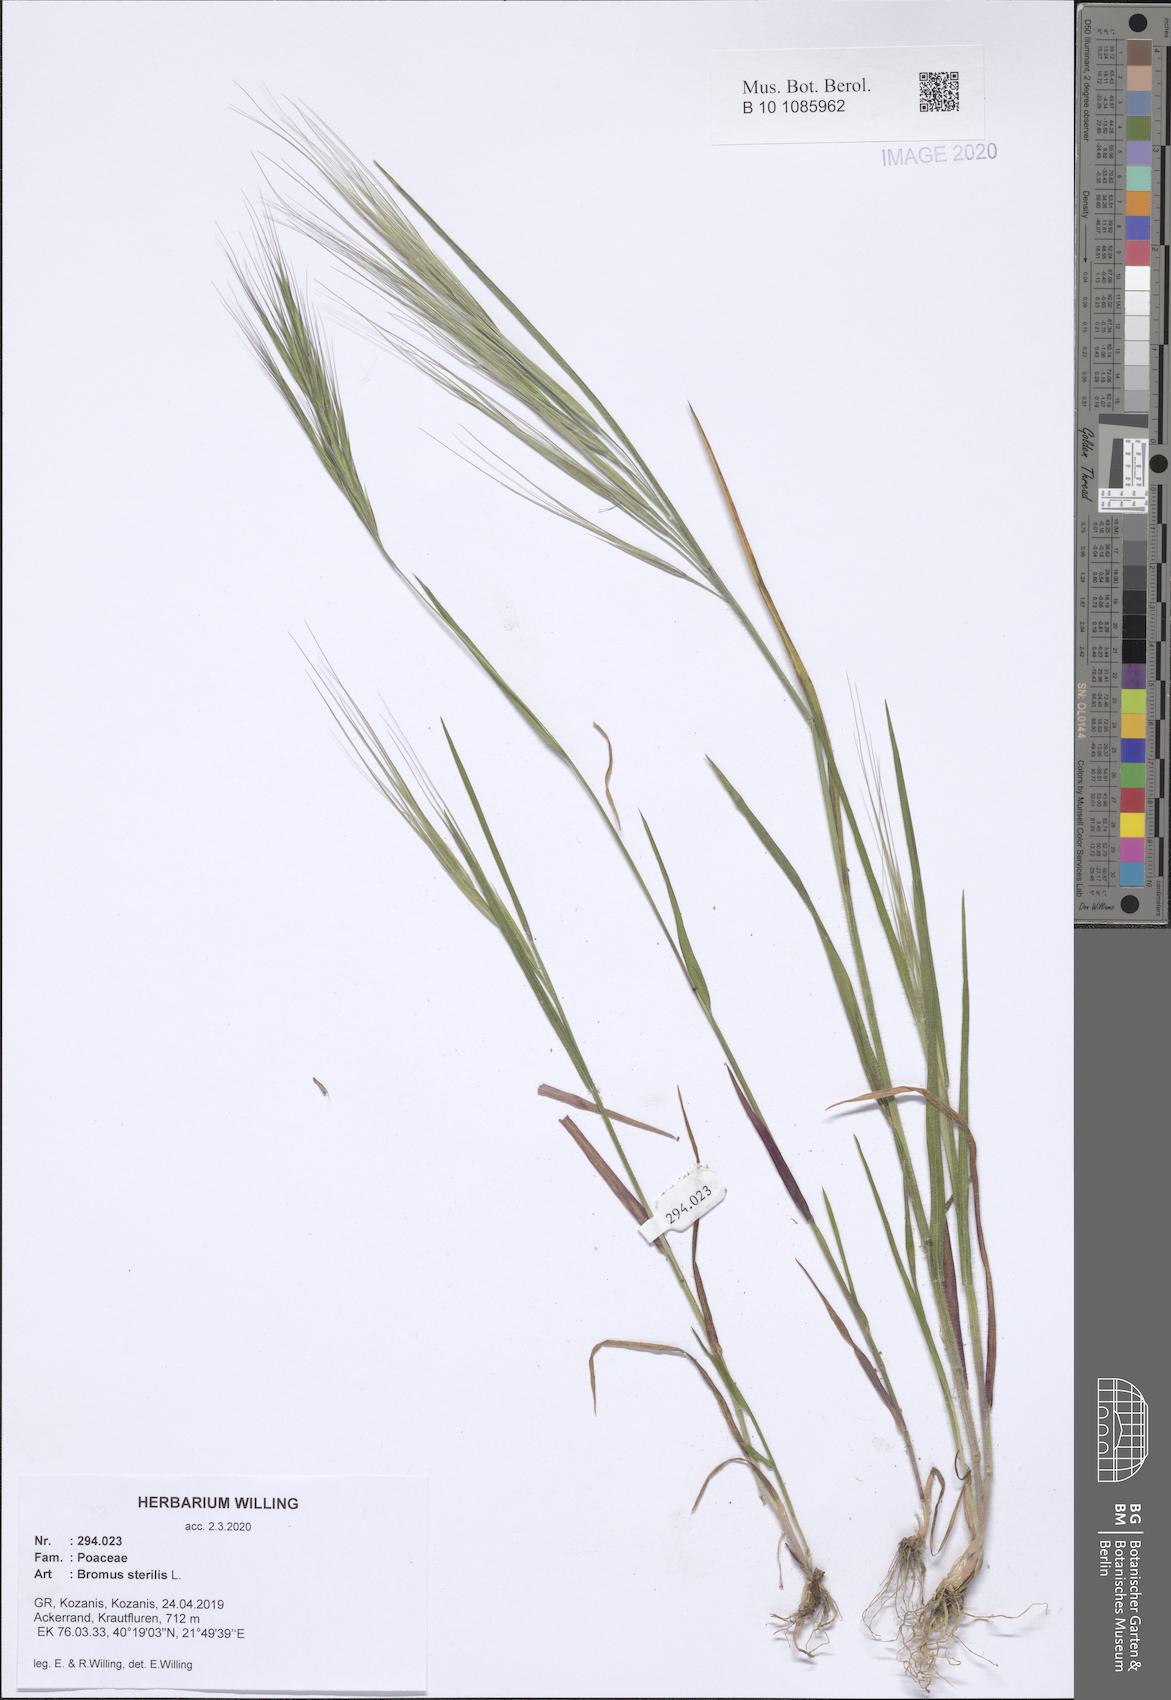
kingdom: Plantae
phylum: Tracheophyta
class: Liliopsida
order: Poales
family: Poaceae
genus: Bromus
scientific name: Bromus sterilis
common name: Poverty brome
